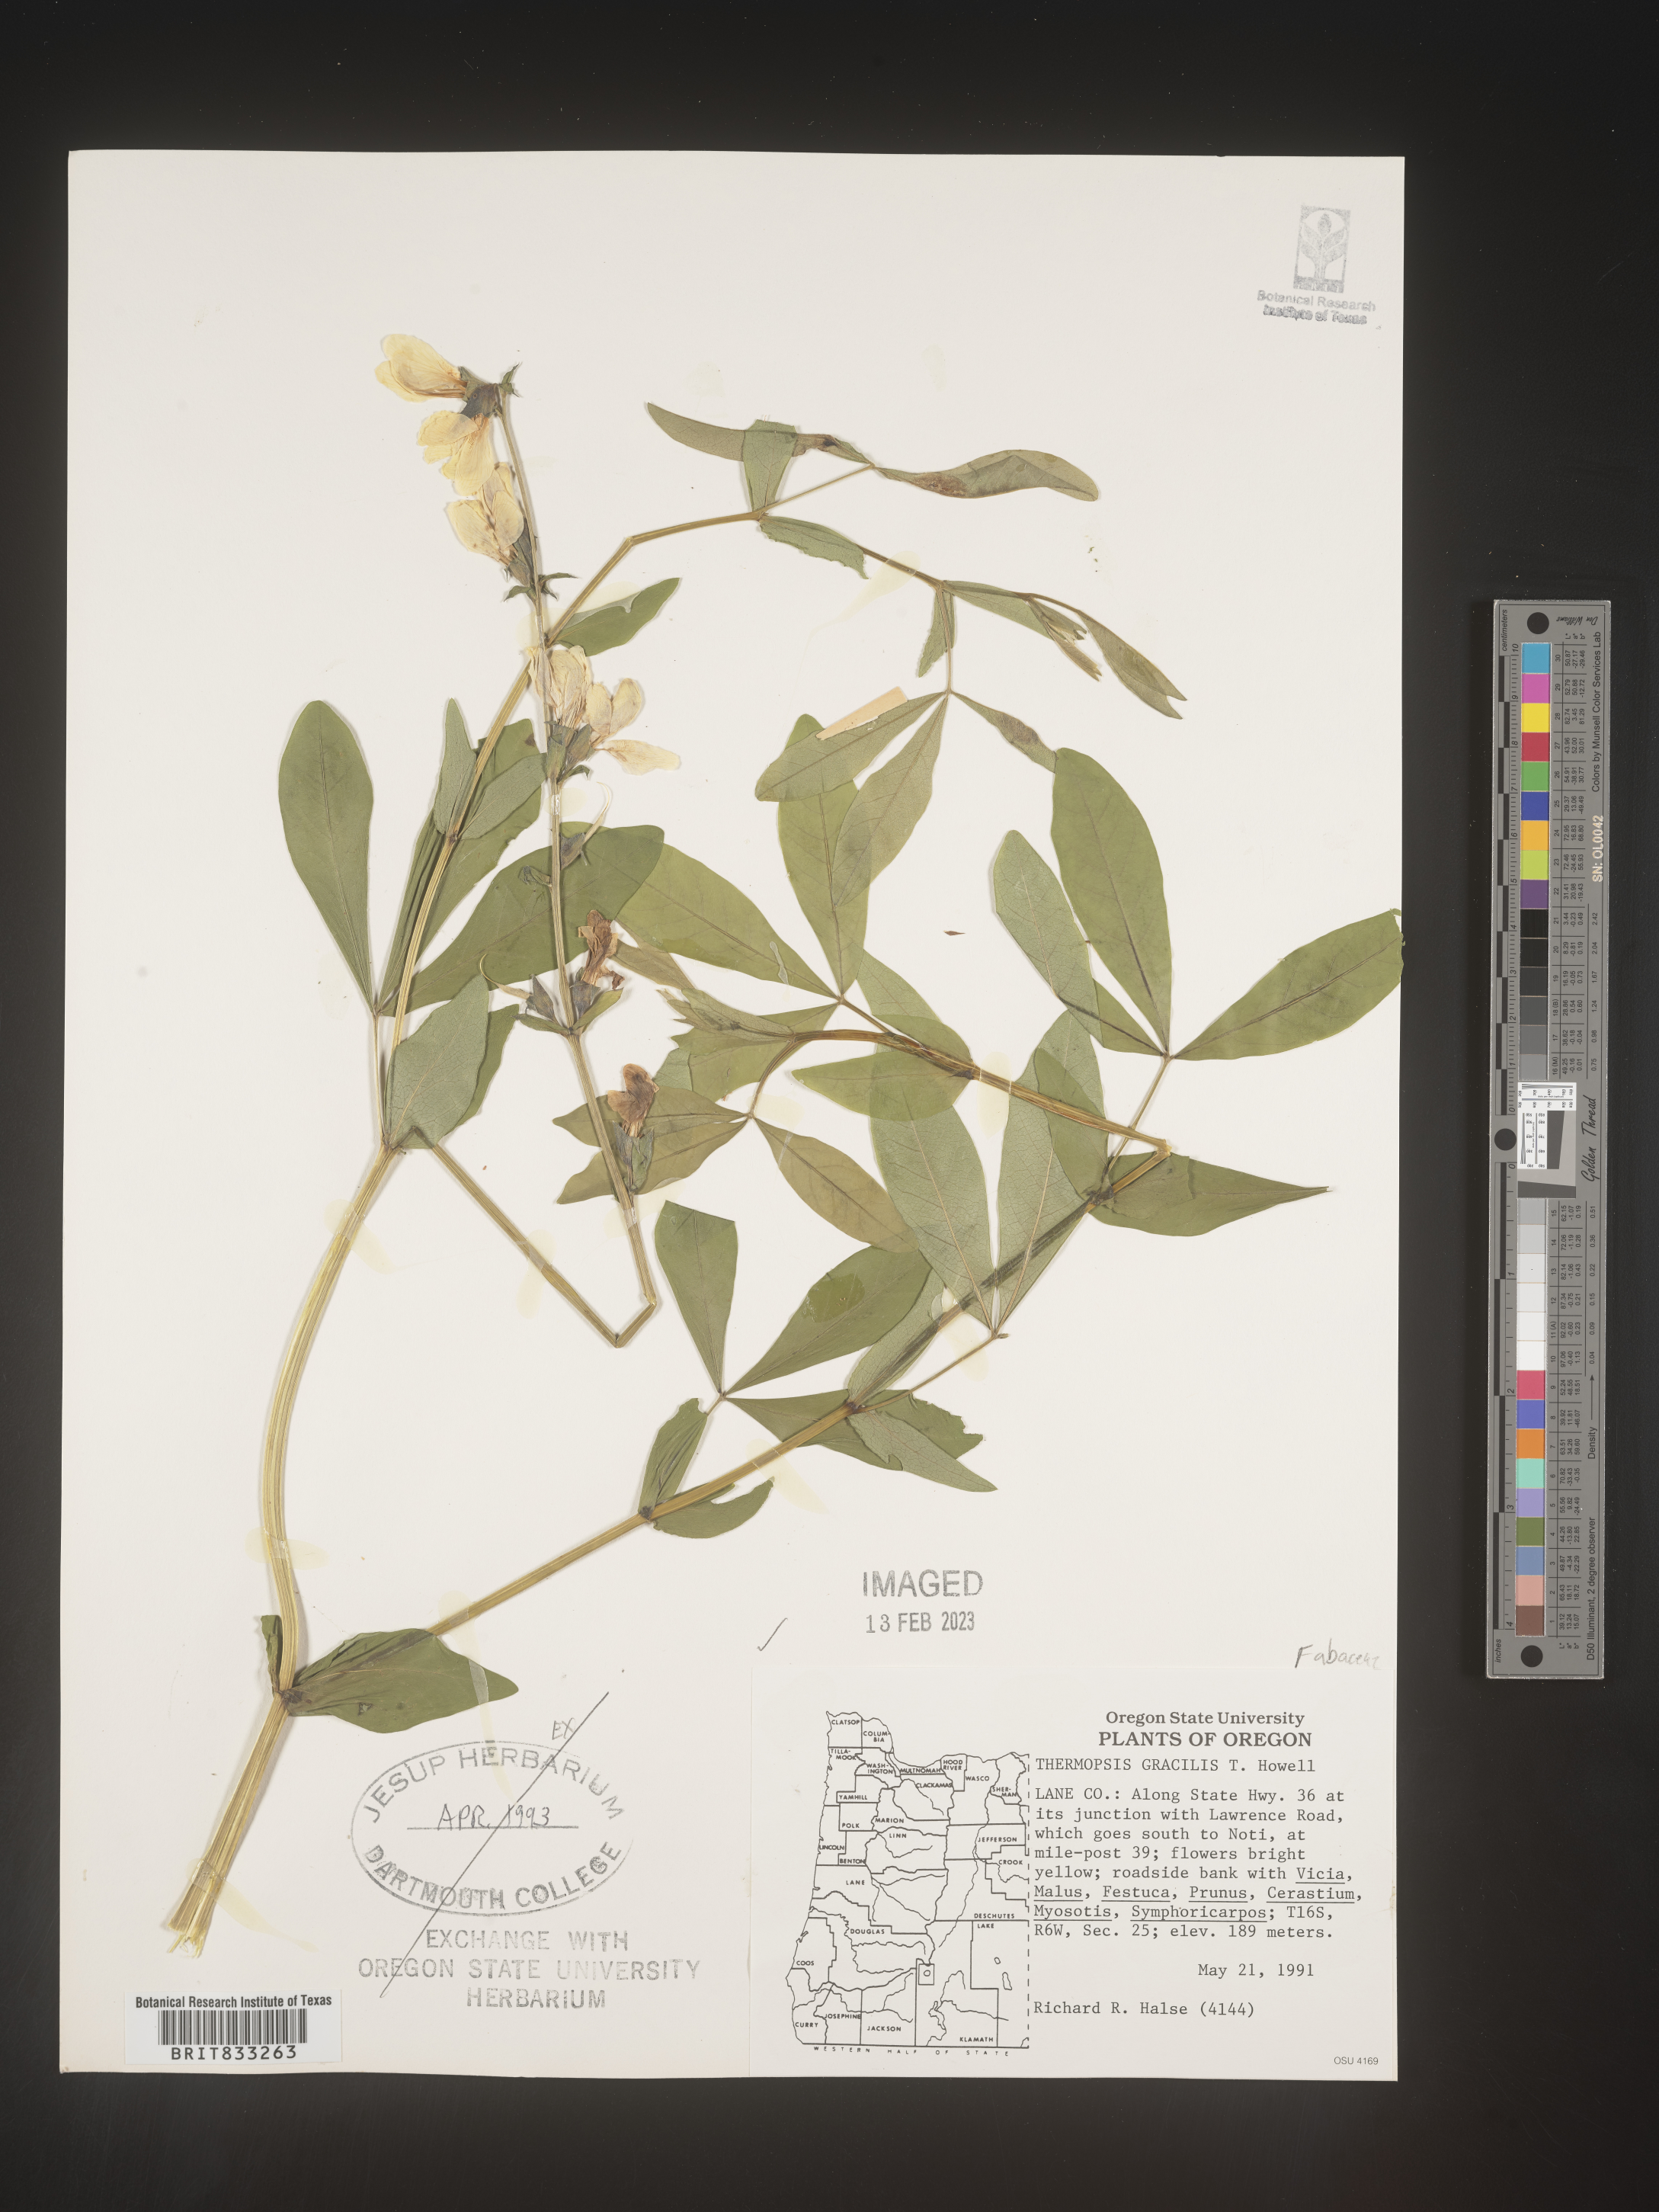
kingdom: Plantae
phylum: Tracheophyta
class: Magnoliopsida
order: Fabales
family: Fabaceae
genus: Thermopsis
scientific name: Thermopsis gracilis
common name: Slender golden-banner
